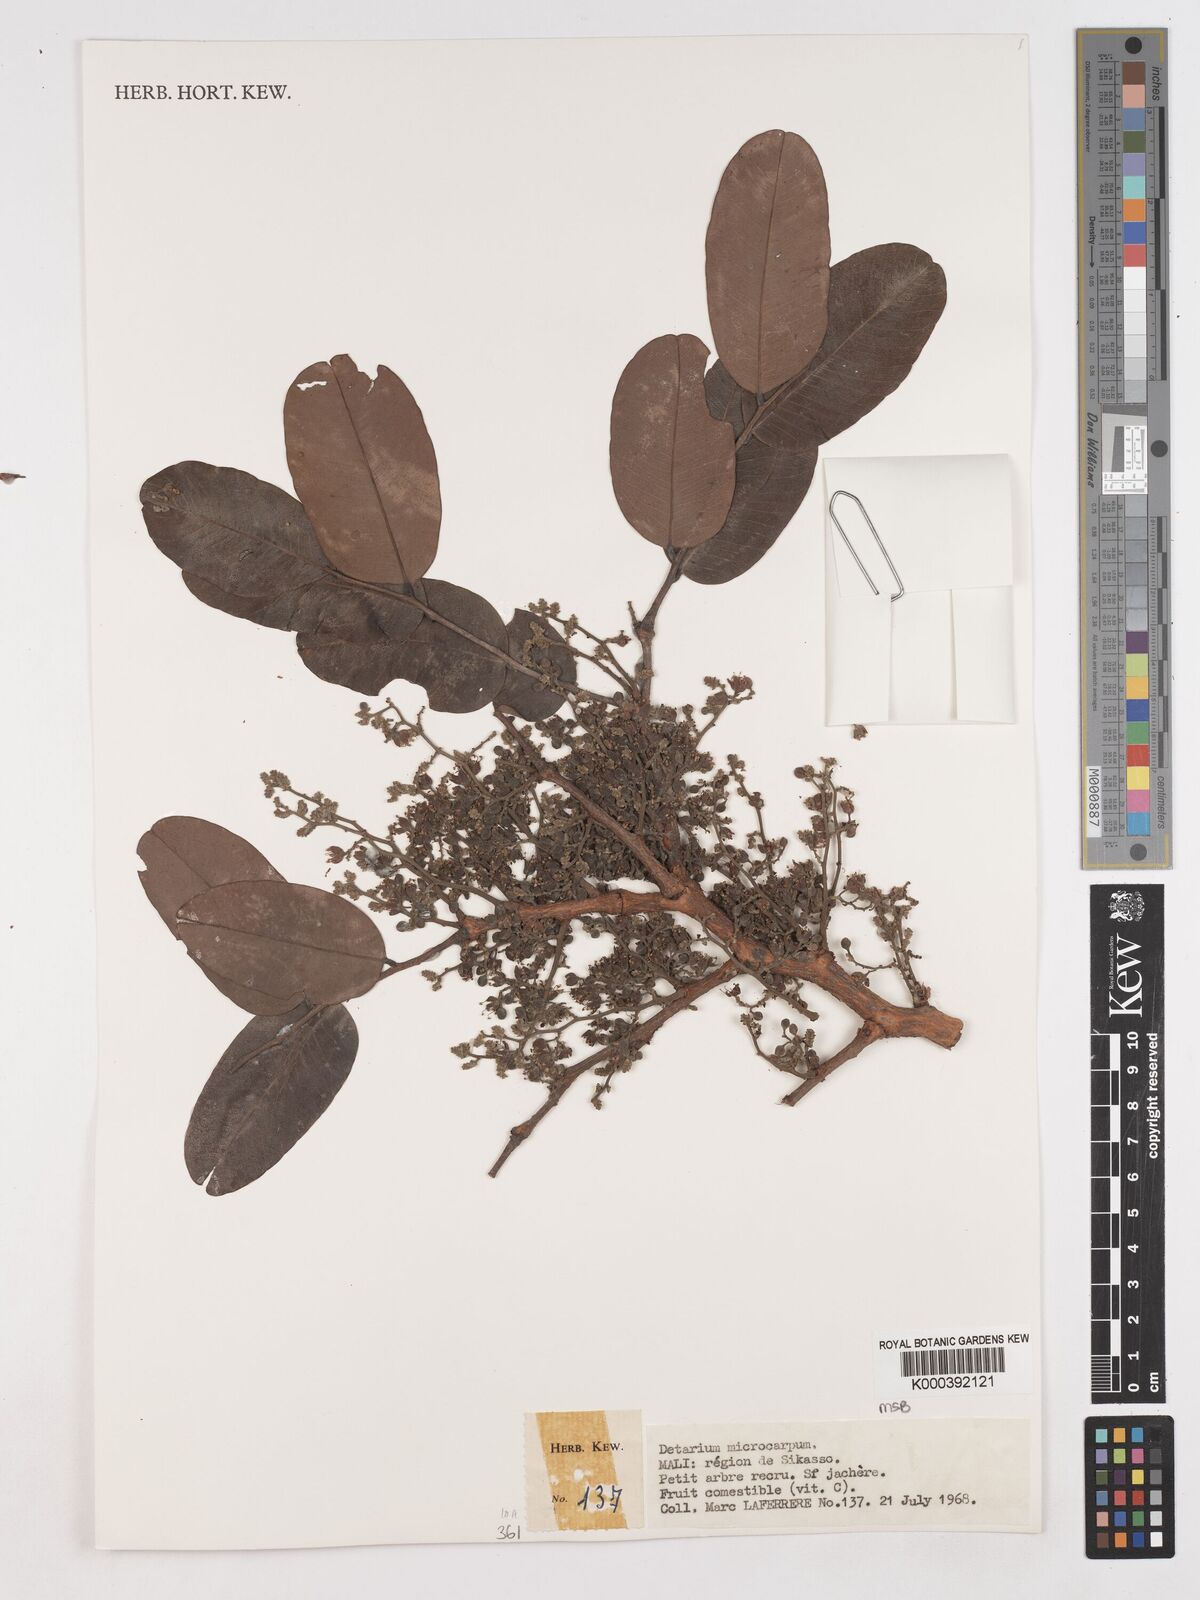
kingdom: Plantae
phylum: Tracheophyta
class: Magnoliopsida
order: Fabales
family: Fabaceae
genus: Detarium
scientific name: Detarium microcarpum
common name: Sweet dattock
